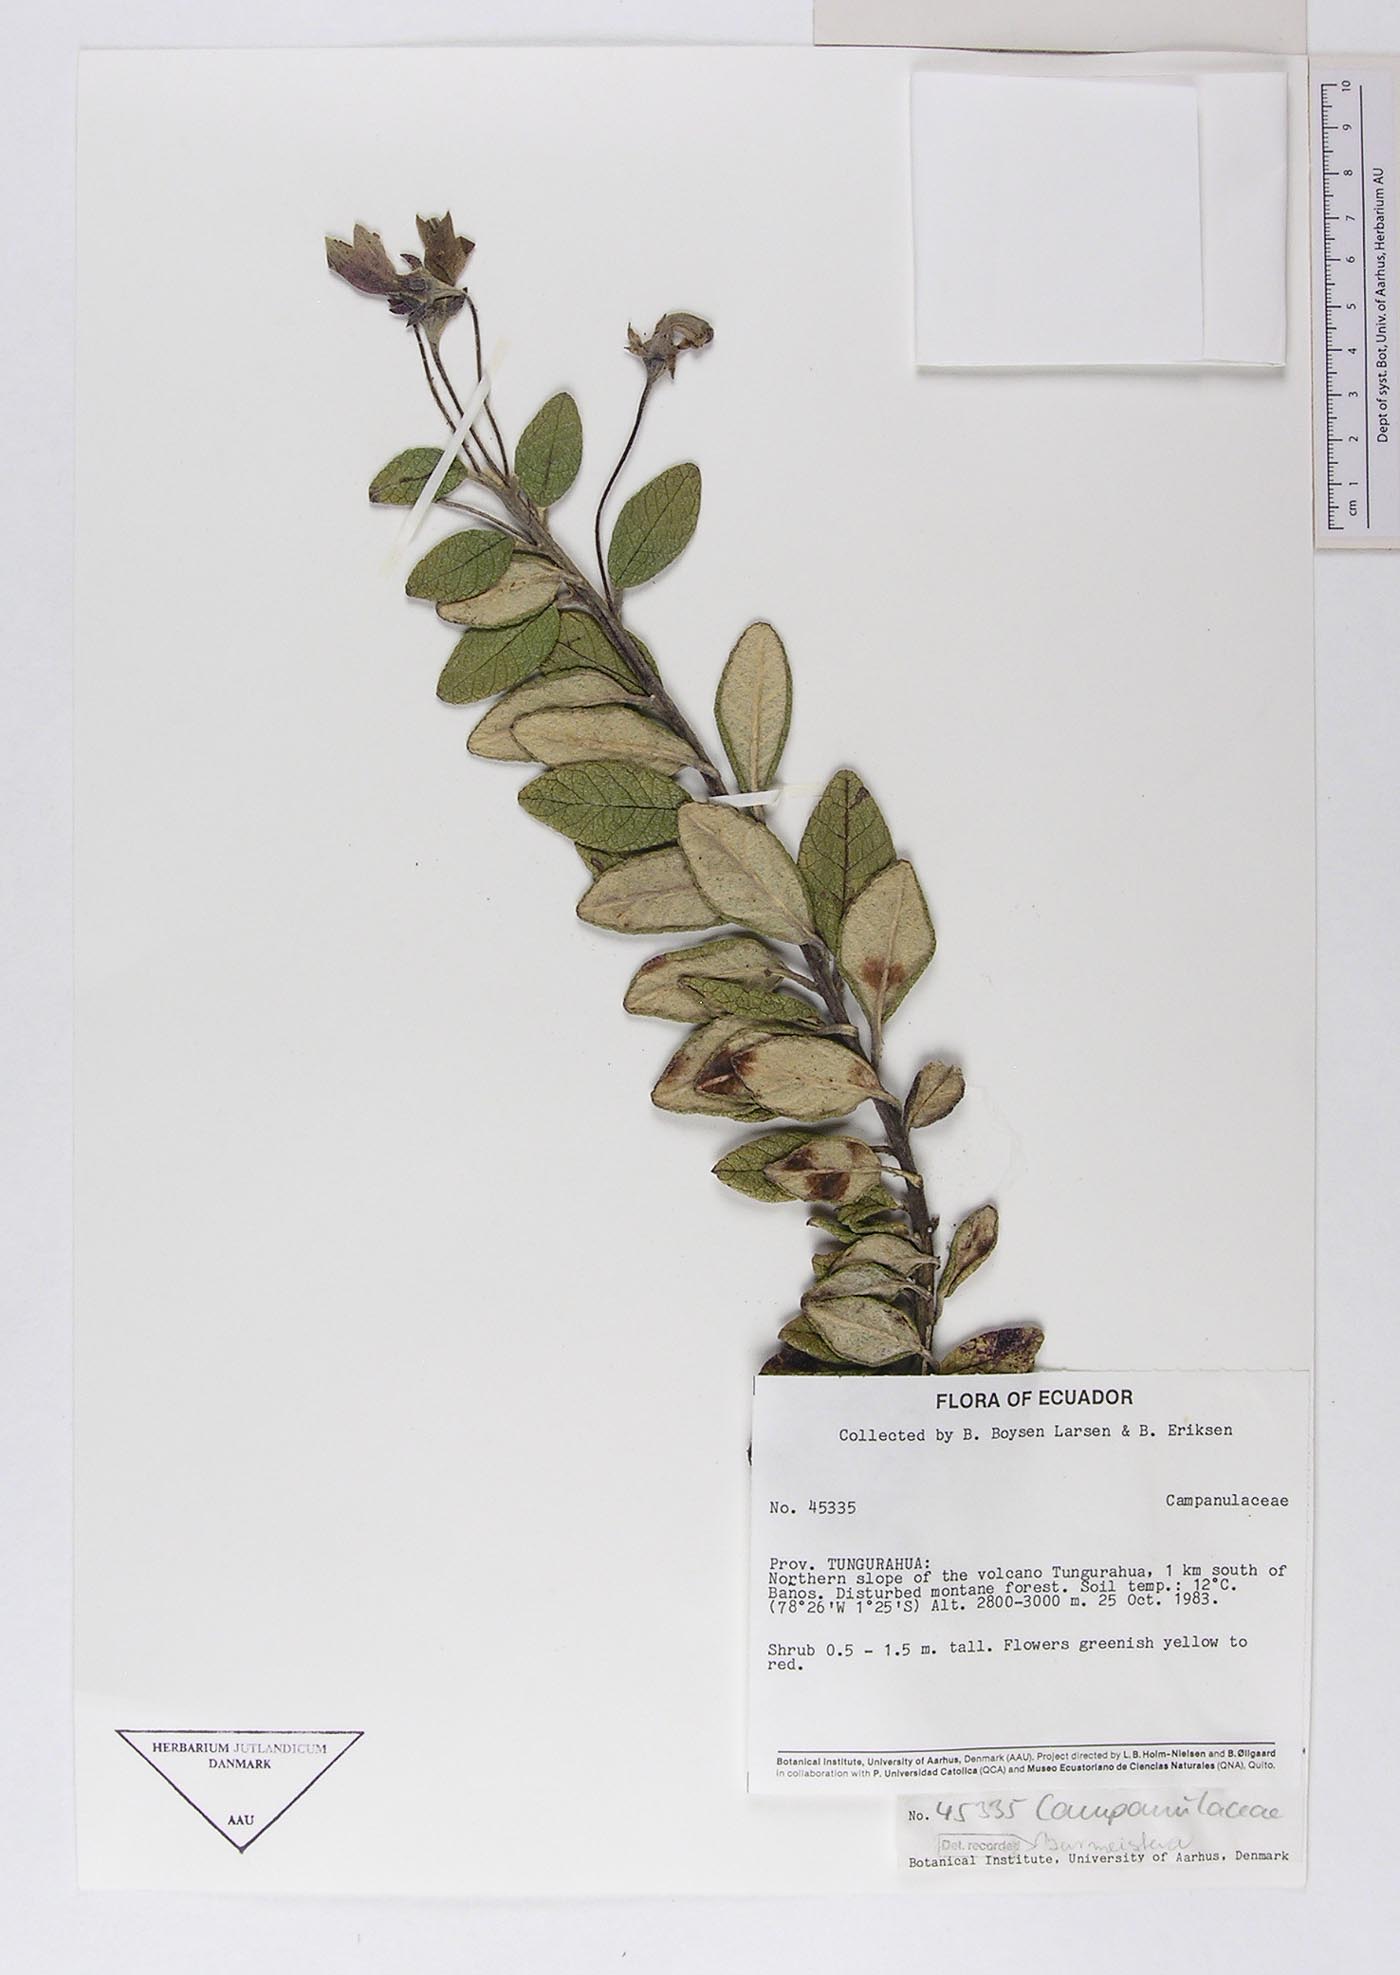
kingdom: Plantae
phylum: Tracheophyta
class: Magnoliopsida
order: Asterales
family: Campanulaceae
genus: Burmeistera
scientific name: Burmeistera
